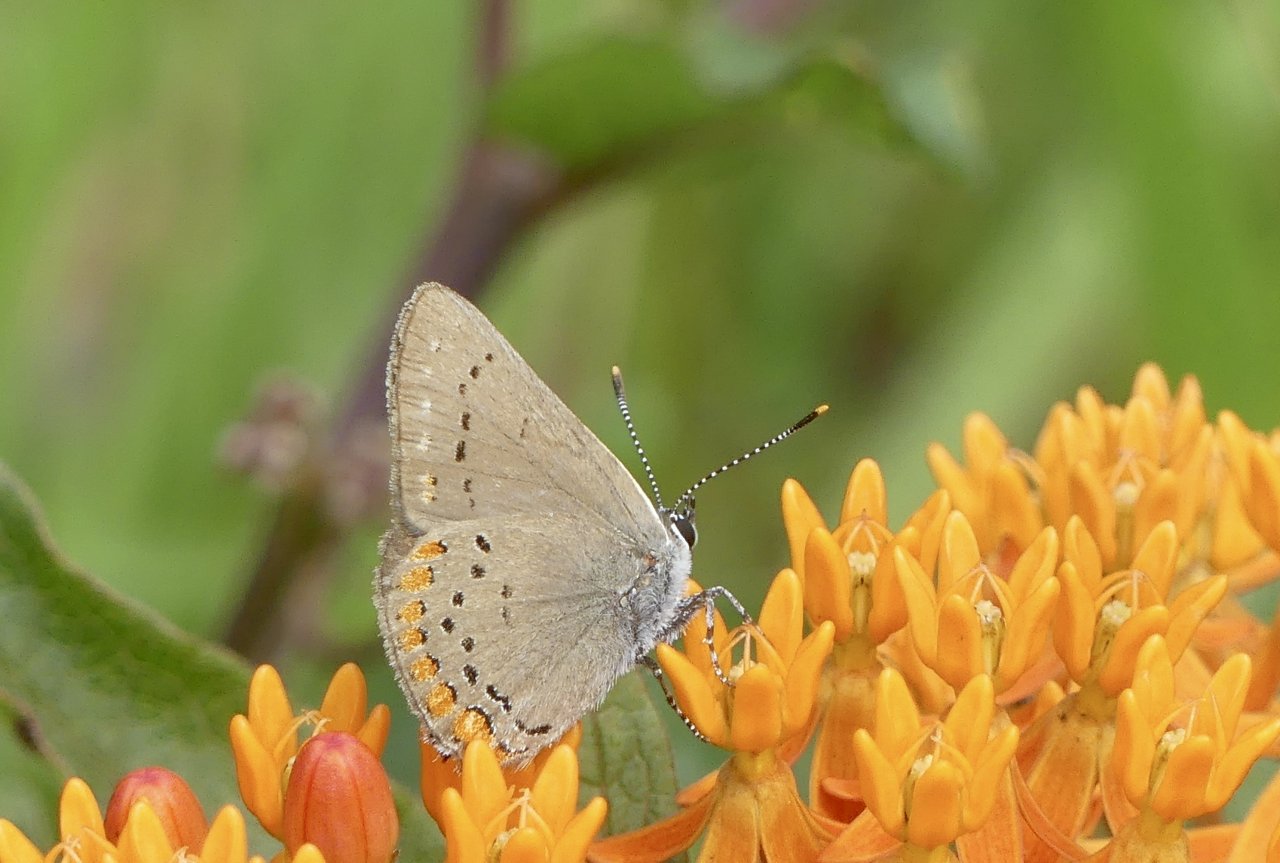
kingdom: Animalia
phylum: Arthropoda
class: Insecta
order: Lepidoptera
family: Lycaenidae
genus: Harkenclenus
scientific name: Harkenclenus titus
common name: Coral Hairstreak
